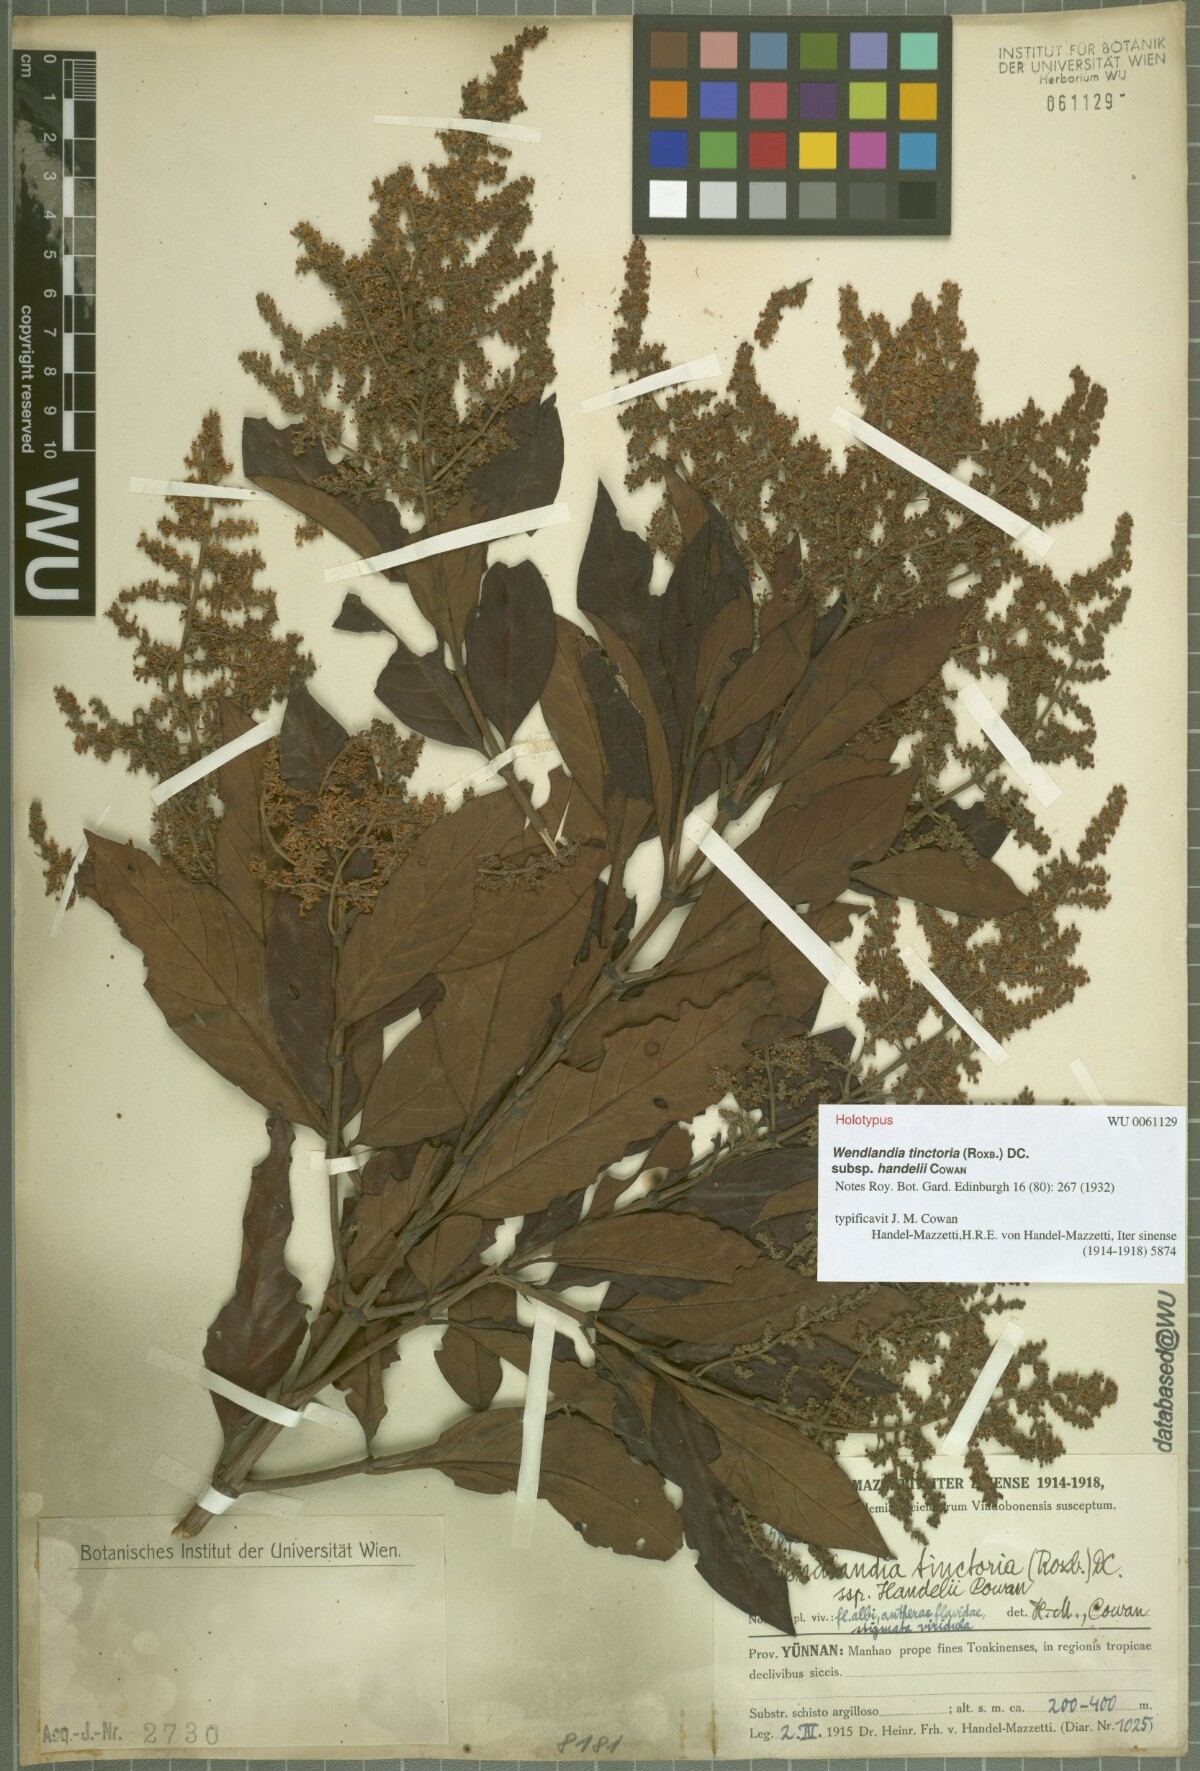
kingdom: Plantae
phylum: Tracheophyta
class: Magnoliopsida
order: Gentianales
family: Rubiaceae
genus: Wendlandia
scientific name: Wendlandia tinctoria
